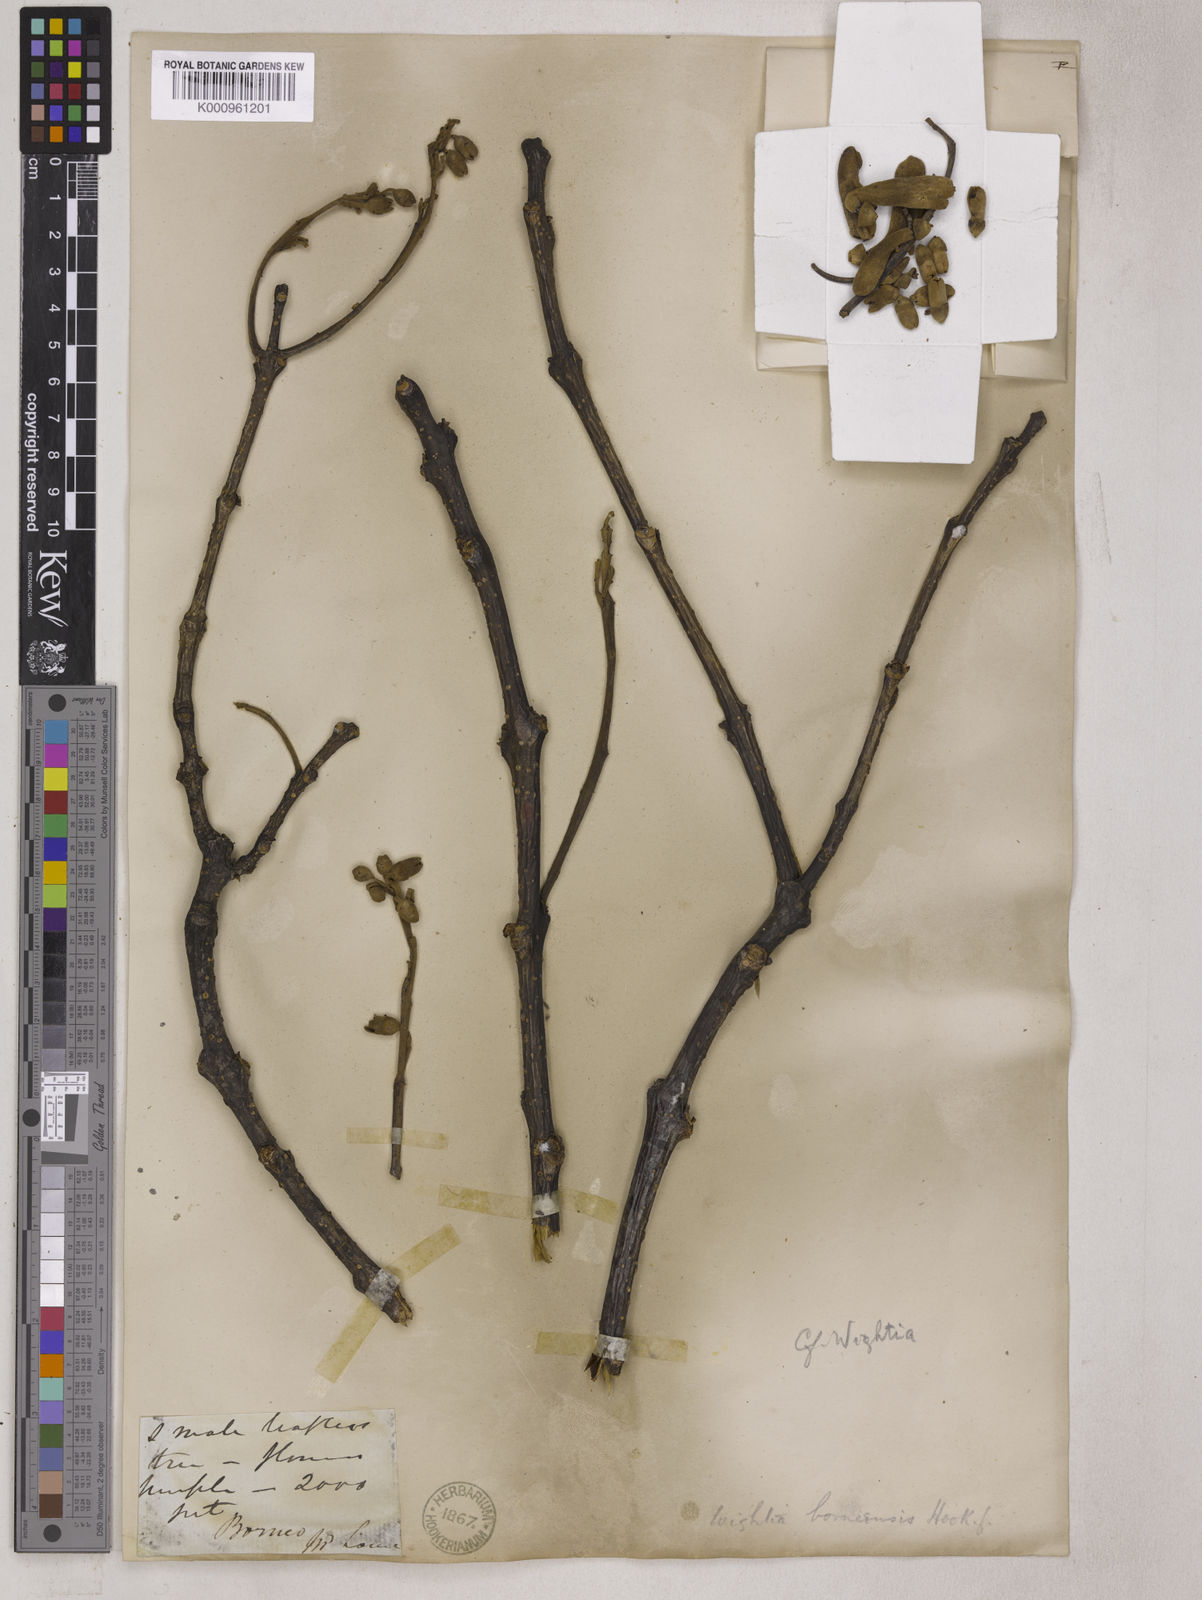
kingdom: Plantae
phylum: Tracheophyta
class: Magnoliopsida
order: Lamiales
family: Wightiaceae
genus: Wightia
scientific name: Wightia borneensis
